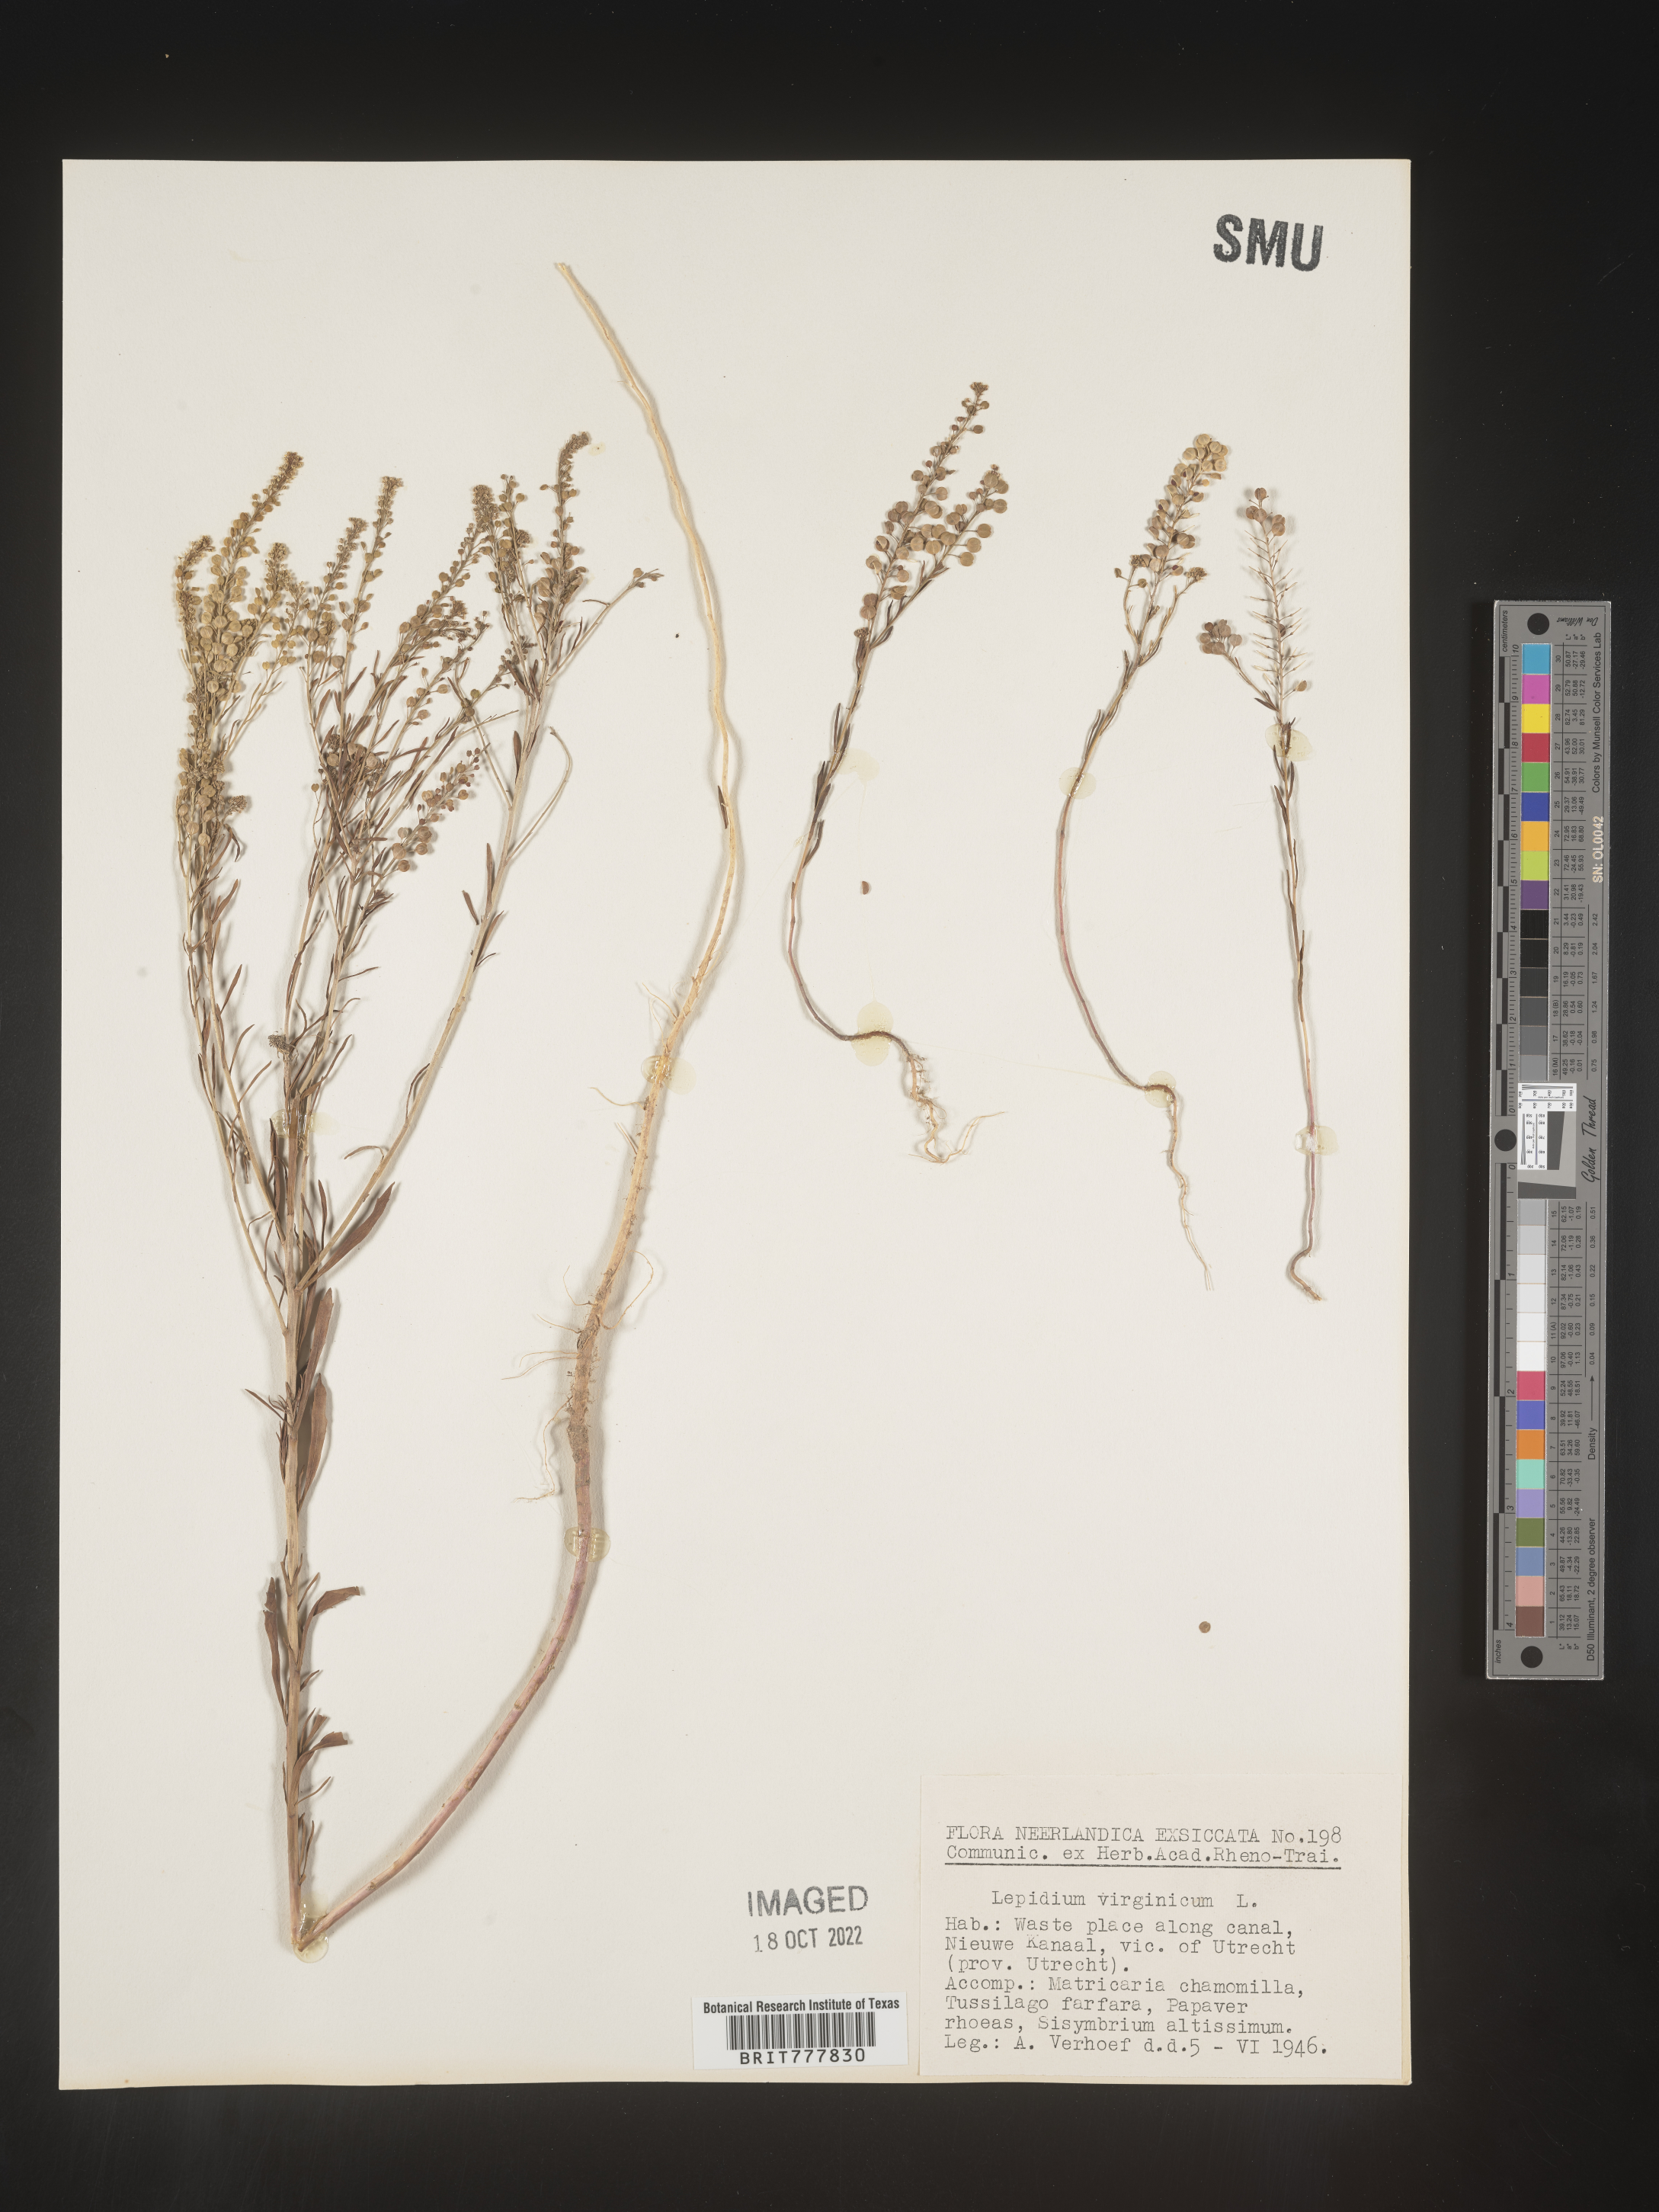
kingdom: Plantae
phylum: Tracheophyta
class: Magnoliopsida
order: Brassicales
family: Brassicaceae
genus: Lepidium
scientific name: Lepidium
